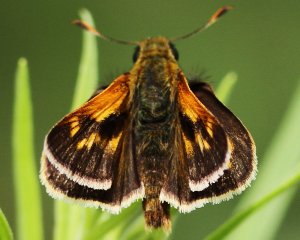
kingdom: Animalia
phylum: Arthropoda
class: Insecta
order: Lepidoptera
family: Hesperiidae
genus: Polites
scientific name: Polites
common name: Long Dash Skipper
